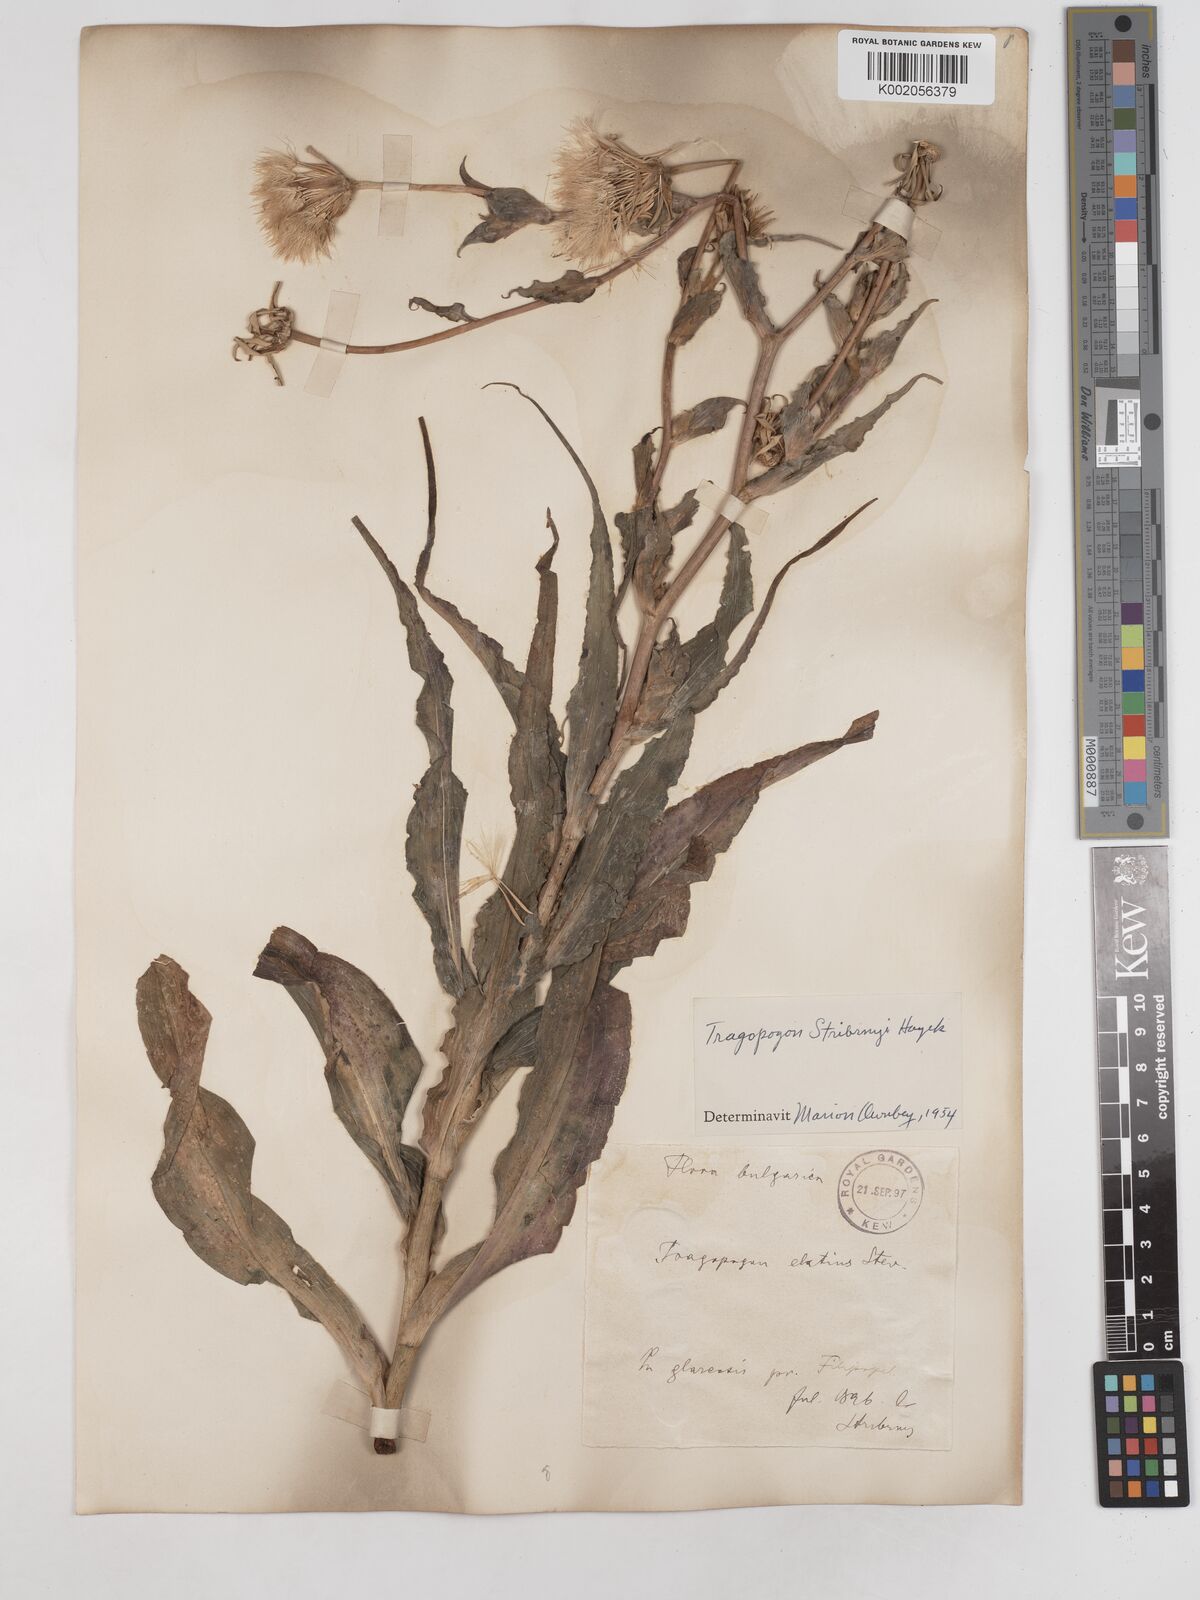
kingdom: Plantae
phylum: Tracheophyta
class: Magnoliopsida
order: Asterales
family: Asteraceae
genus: Tragopogon
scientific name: Tragopogon dubius
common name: Yellow salsify
